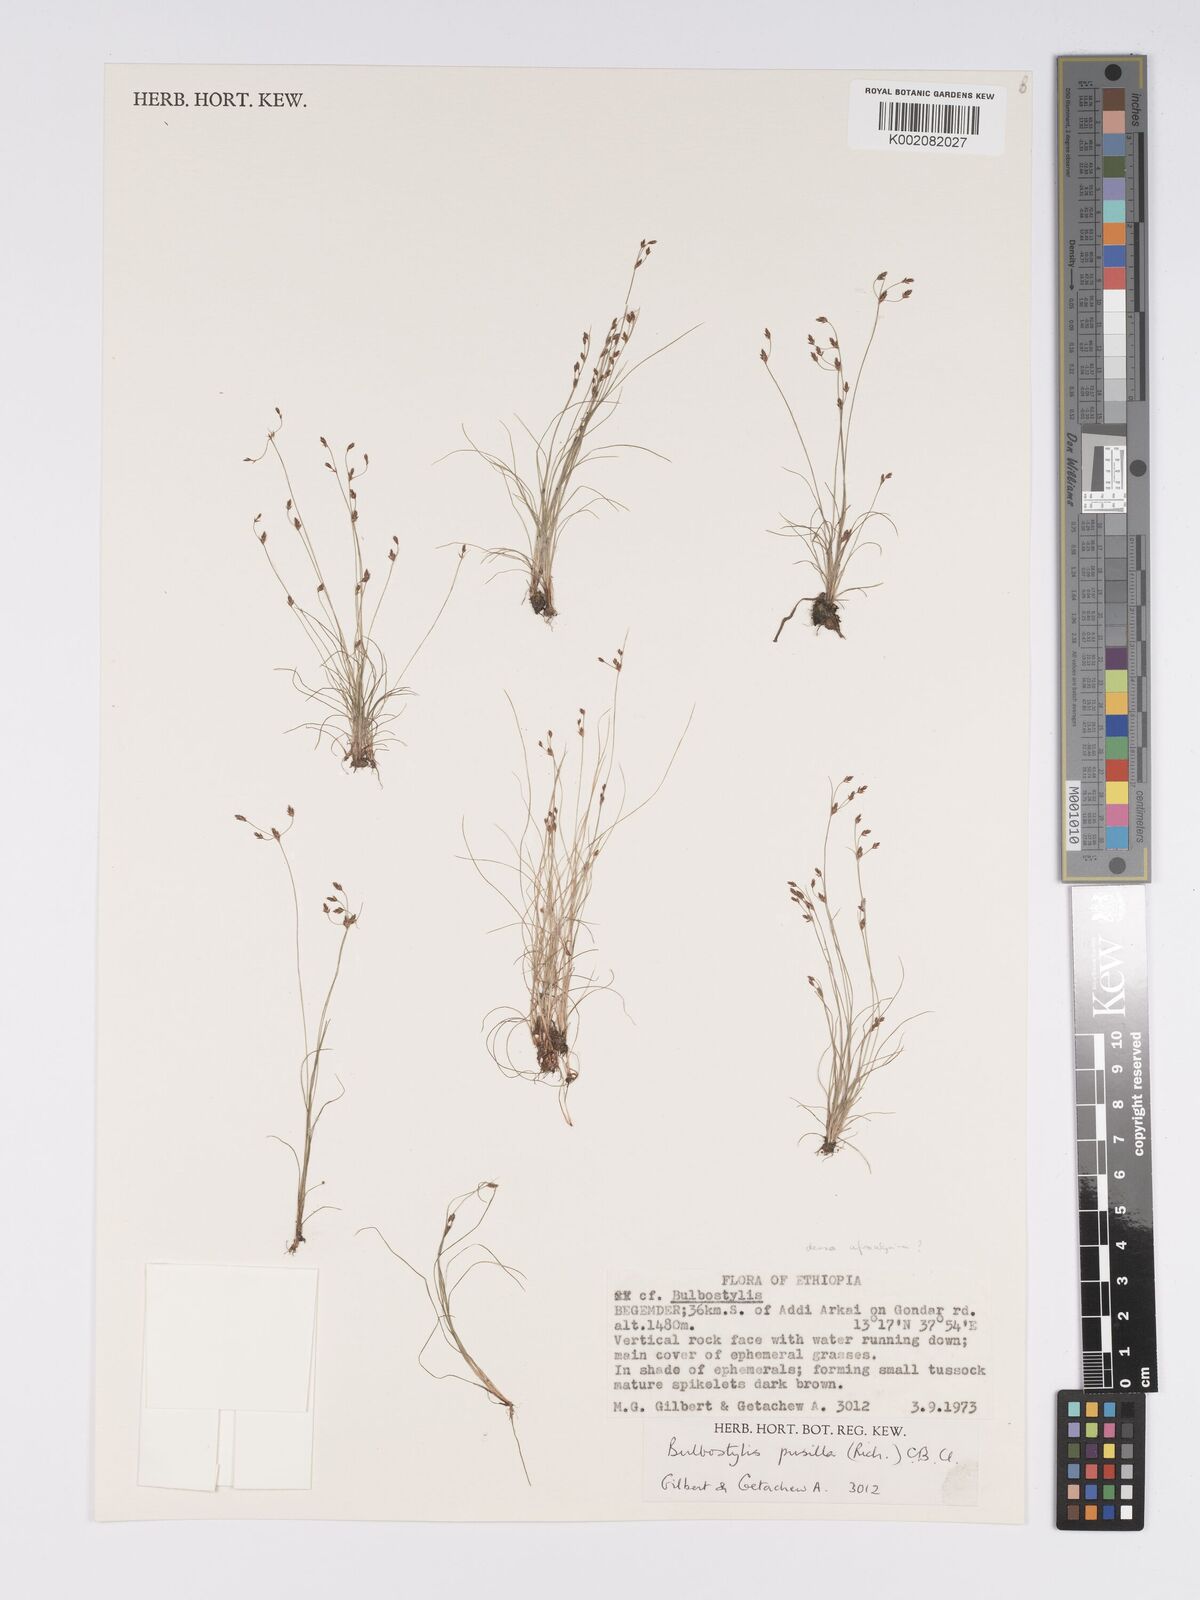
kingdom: Plantae
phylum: Tracheophyta
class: Liliopsida
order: Poales
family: Cyperaceae
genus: Bulbostylis
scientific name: Bulbostylis densa
